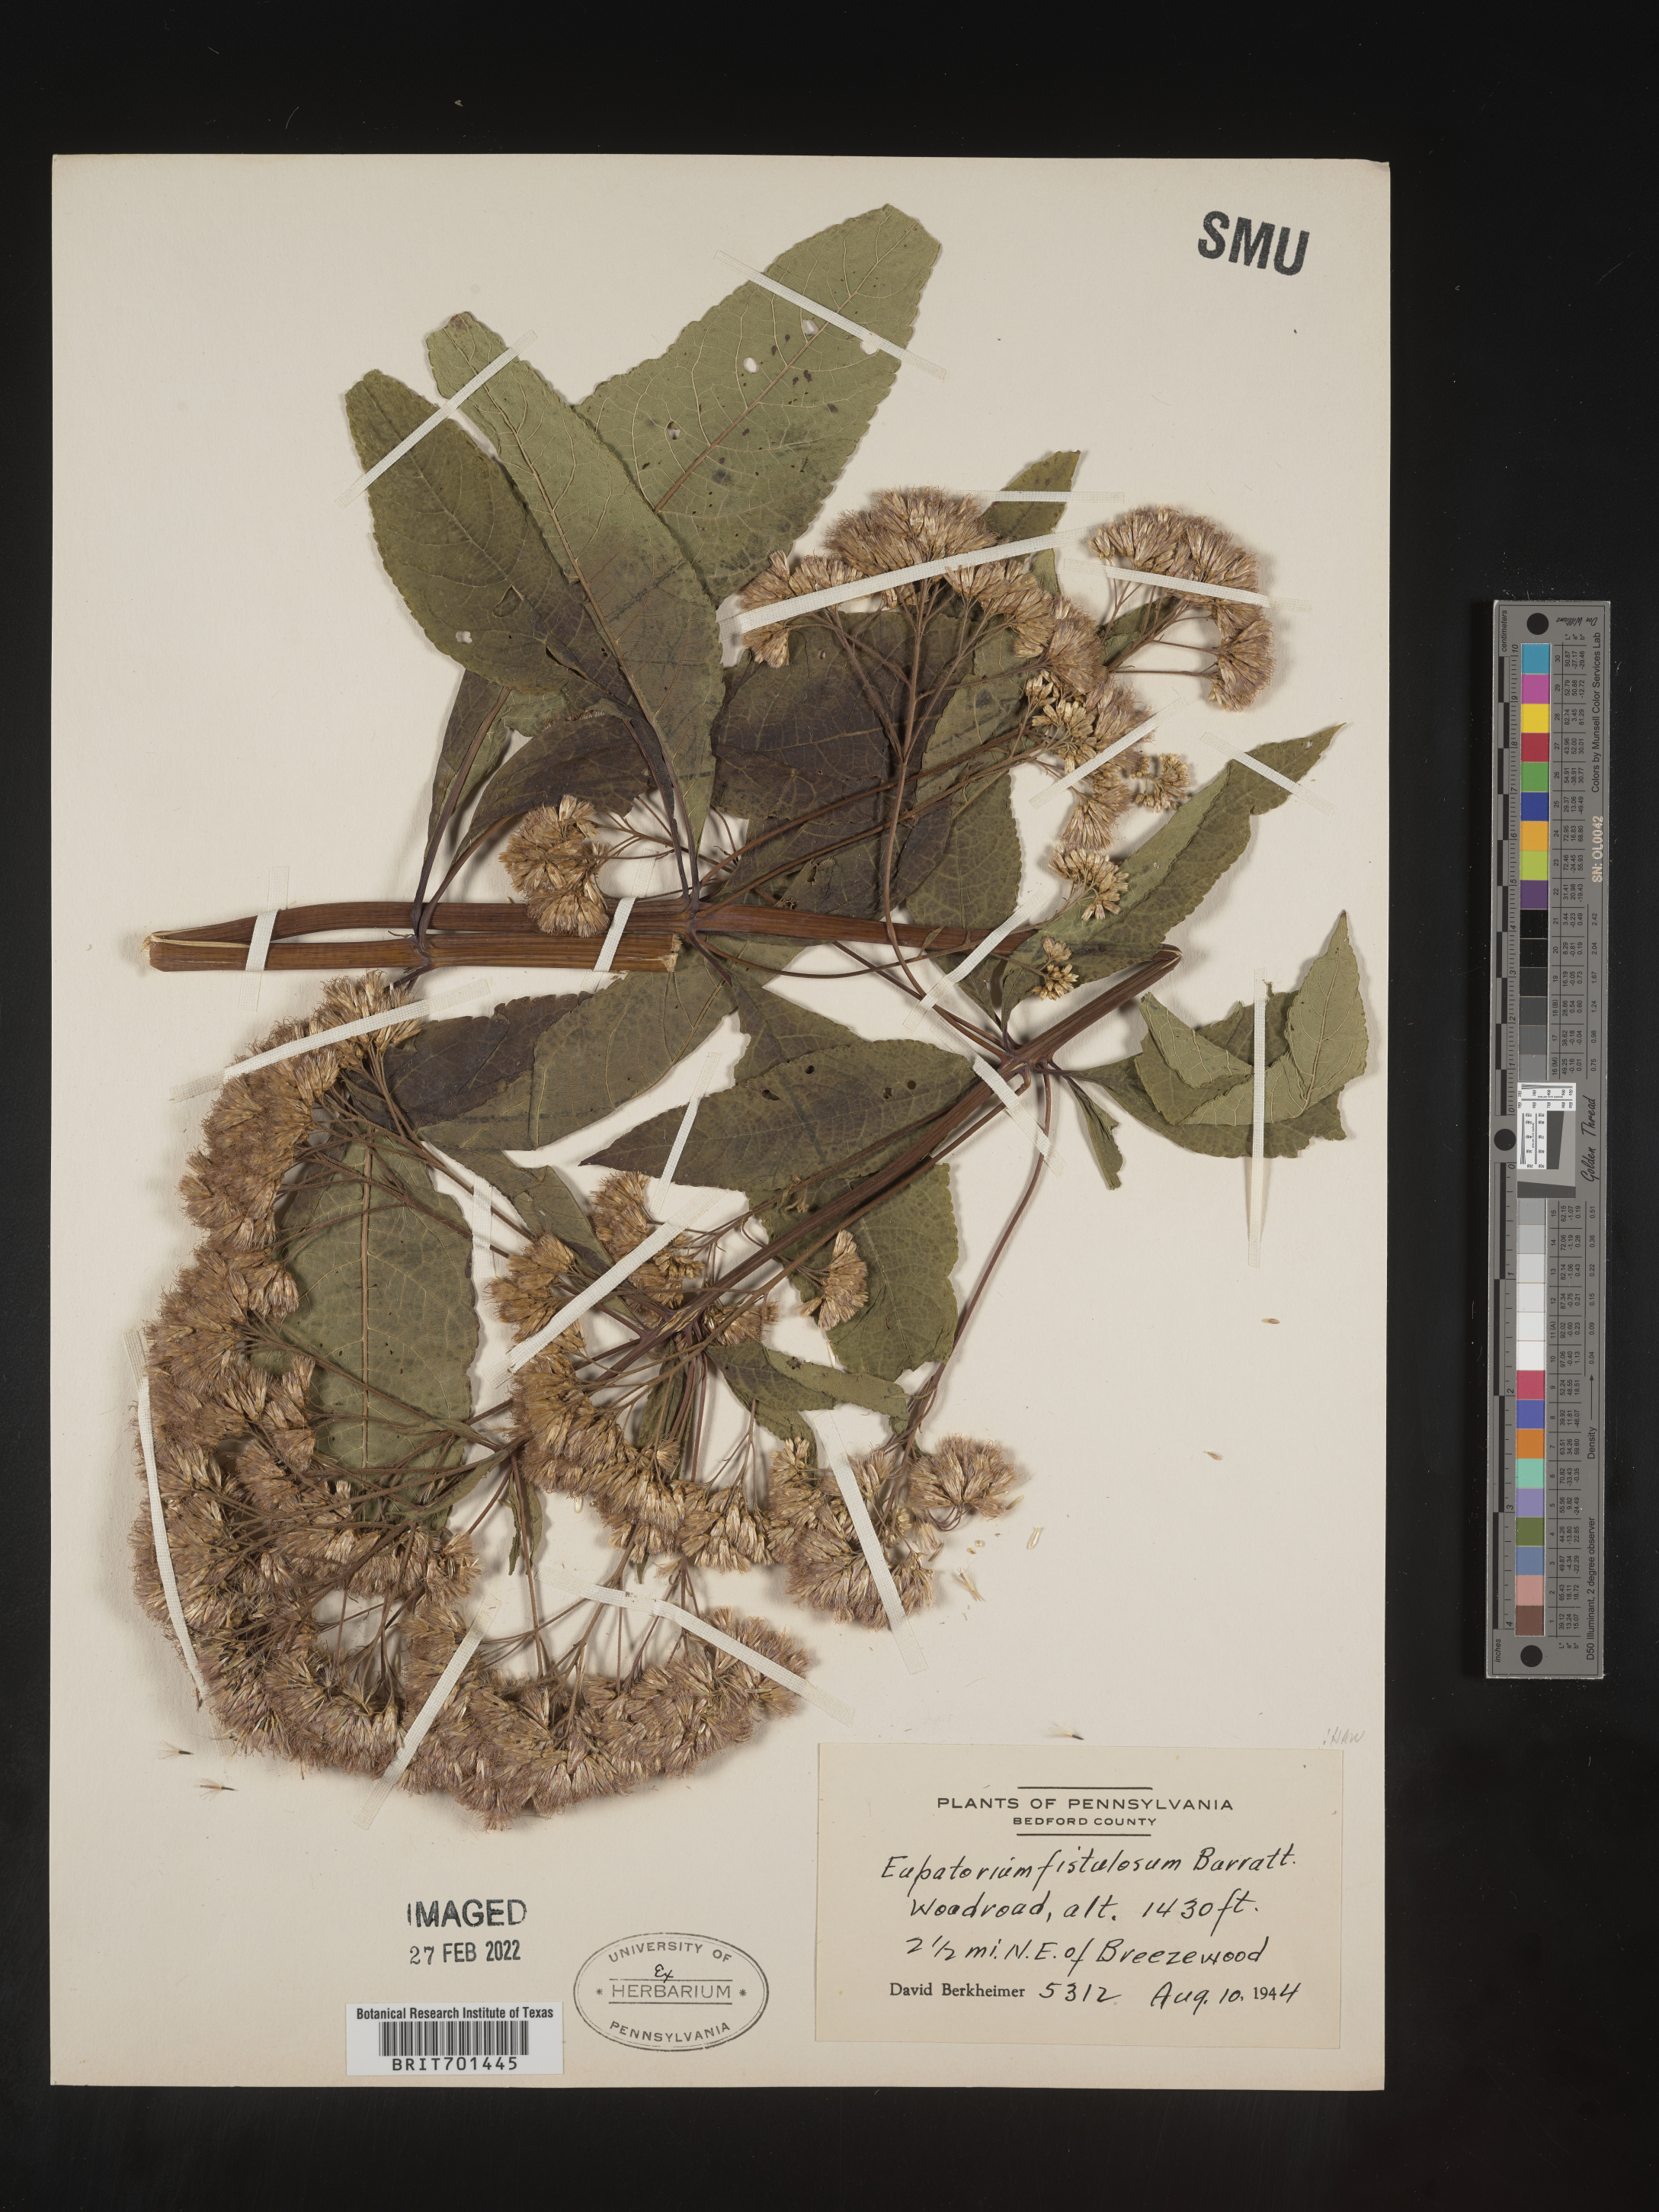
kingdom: Plantae
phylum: Tracheophyta
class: Magnoliopsida
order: Asterales
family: Asteraceae
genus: Eutrochium
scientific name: Eutrochium fistulosum
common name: Trumpetweed
